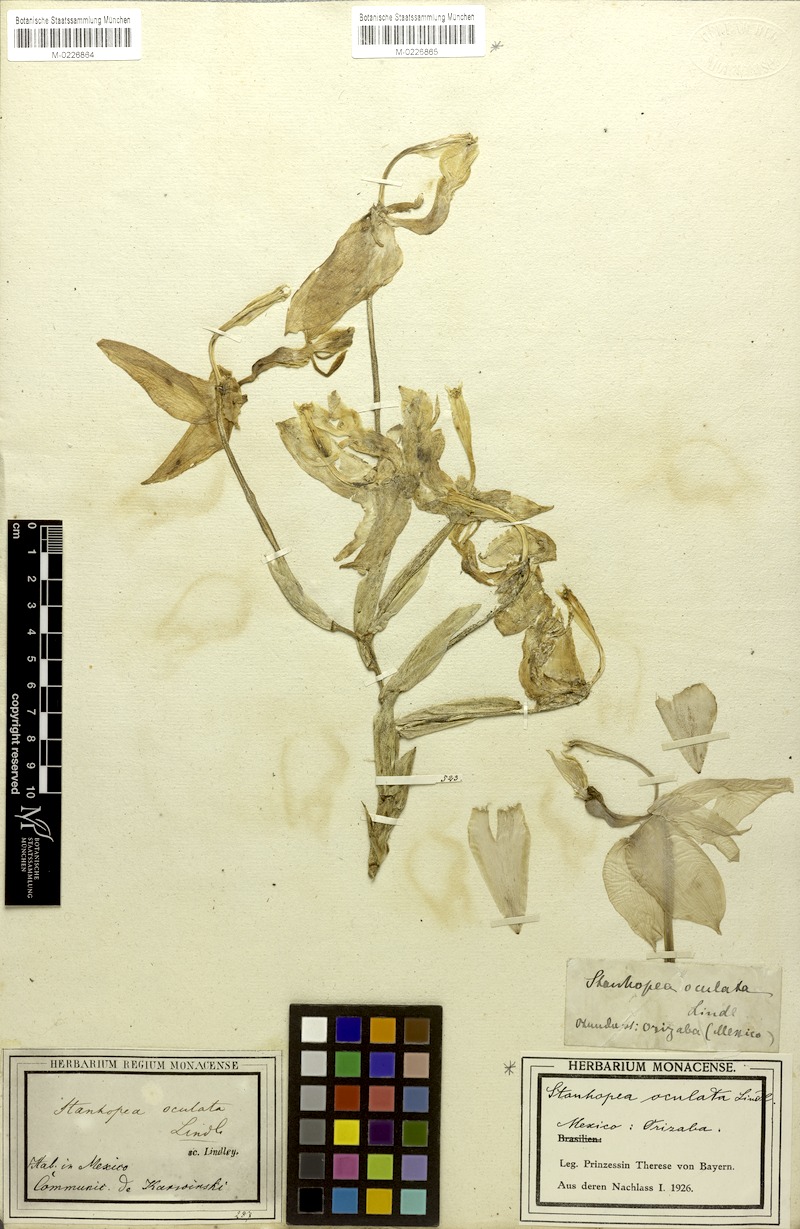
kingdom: Plantae
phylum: Tracheophyta
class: Liliopsida
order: Asparagales
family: Orchidaceae
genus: Stanhopea
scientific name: Stanhopea oculata
